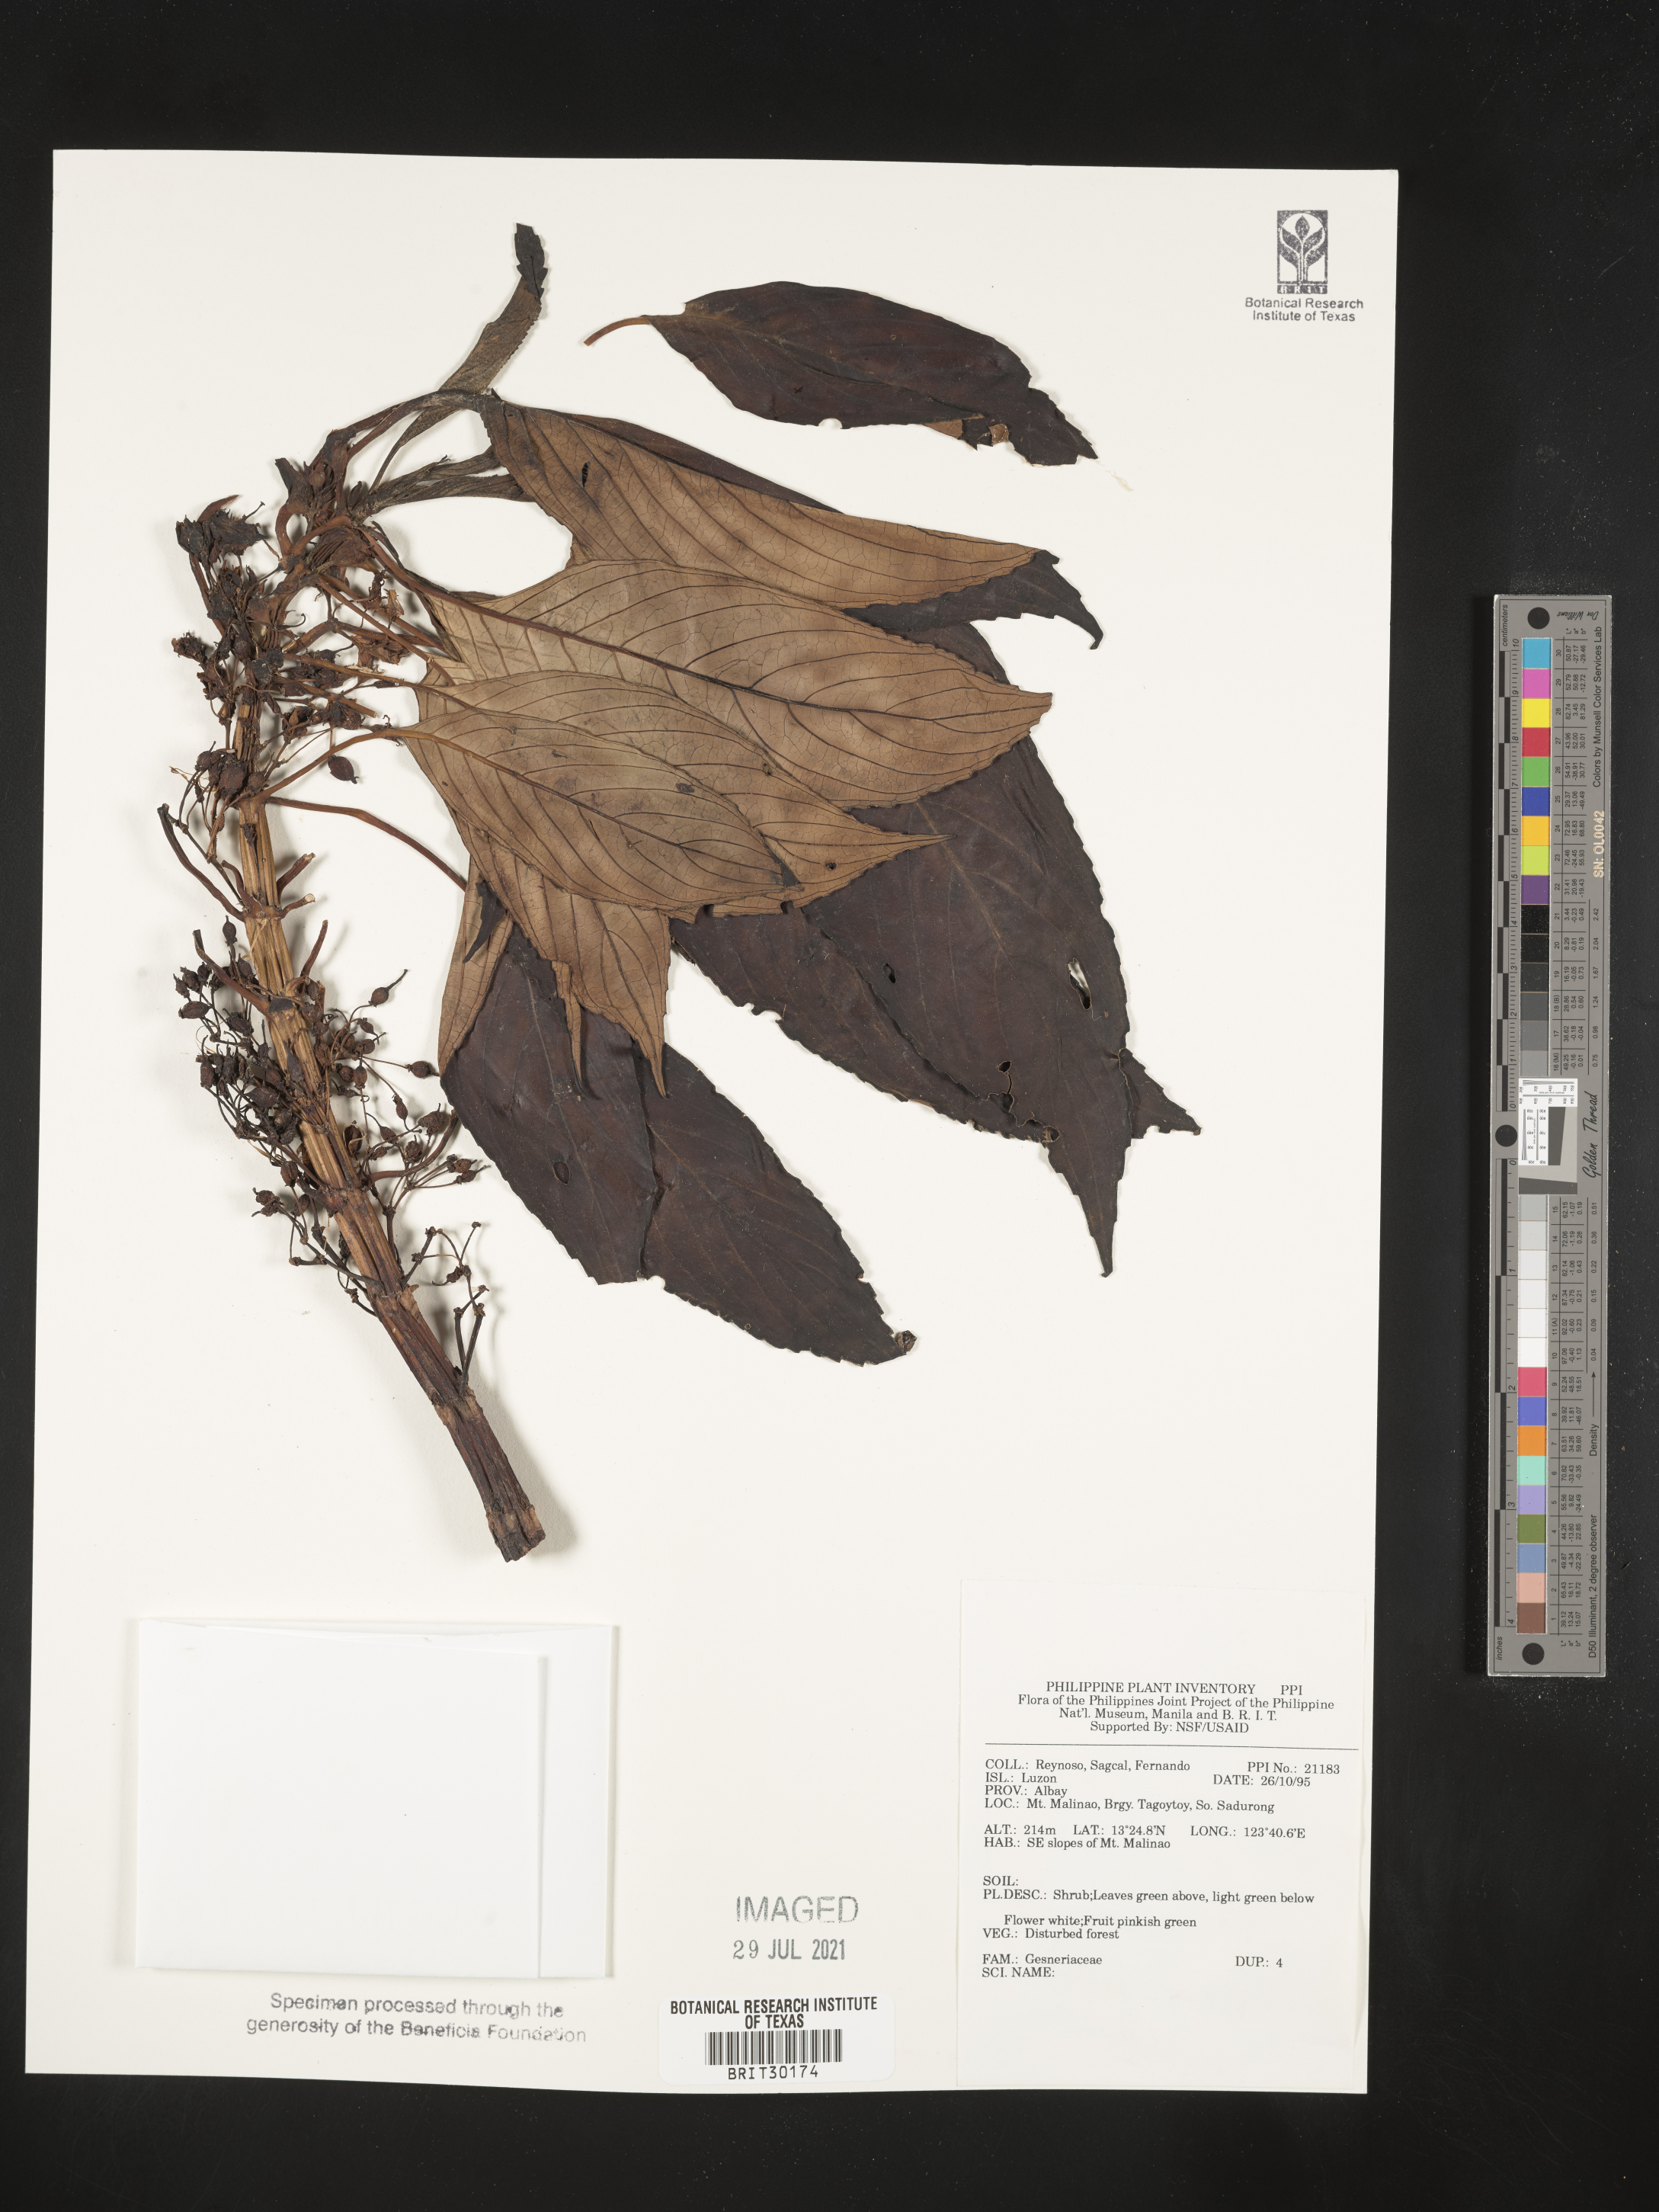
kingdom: Plantae
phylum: Tracheophyta
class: Magnoliopsida
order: Lamiales
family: Gesneriaceae
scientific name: Gesneriaceae
